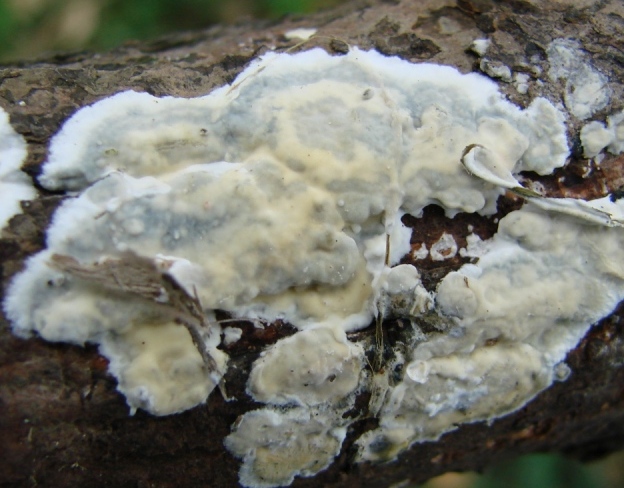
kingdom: Fungi
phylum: Basidiomycota
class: Agaricomycetes
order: Agaricales
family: Radulomycetaceae
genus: Radulomyces
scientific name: Radulomyces confluens
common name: glat naftalinskind
